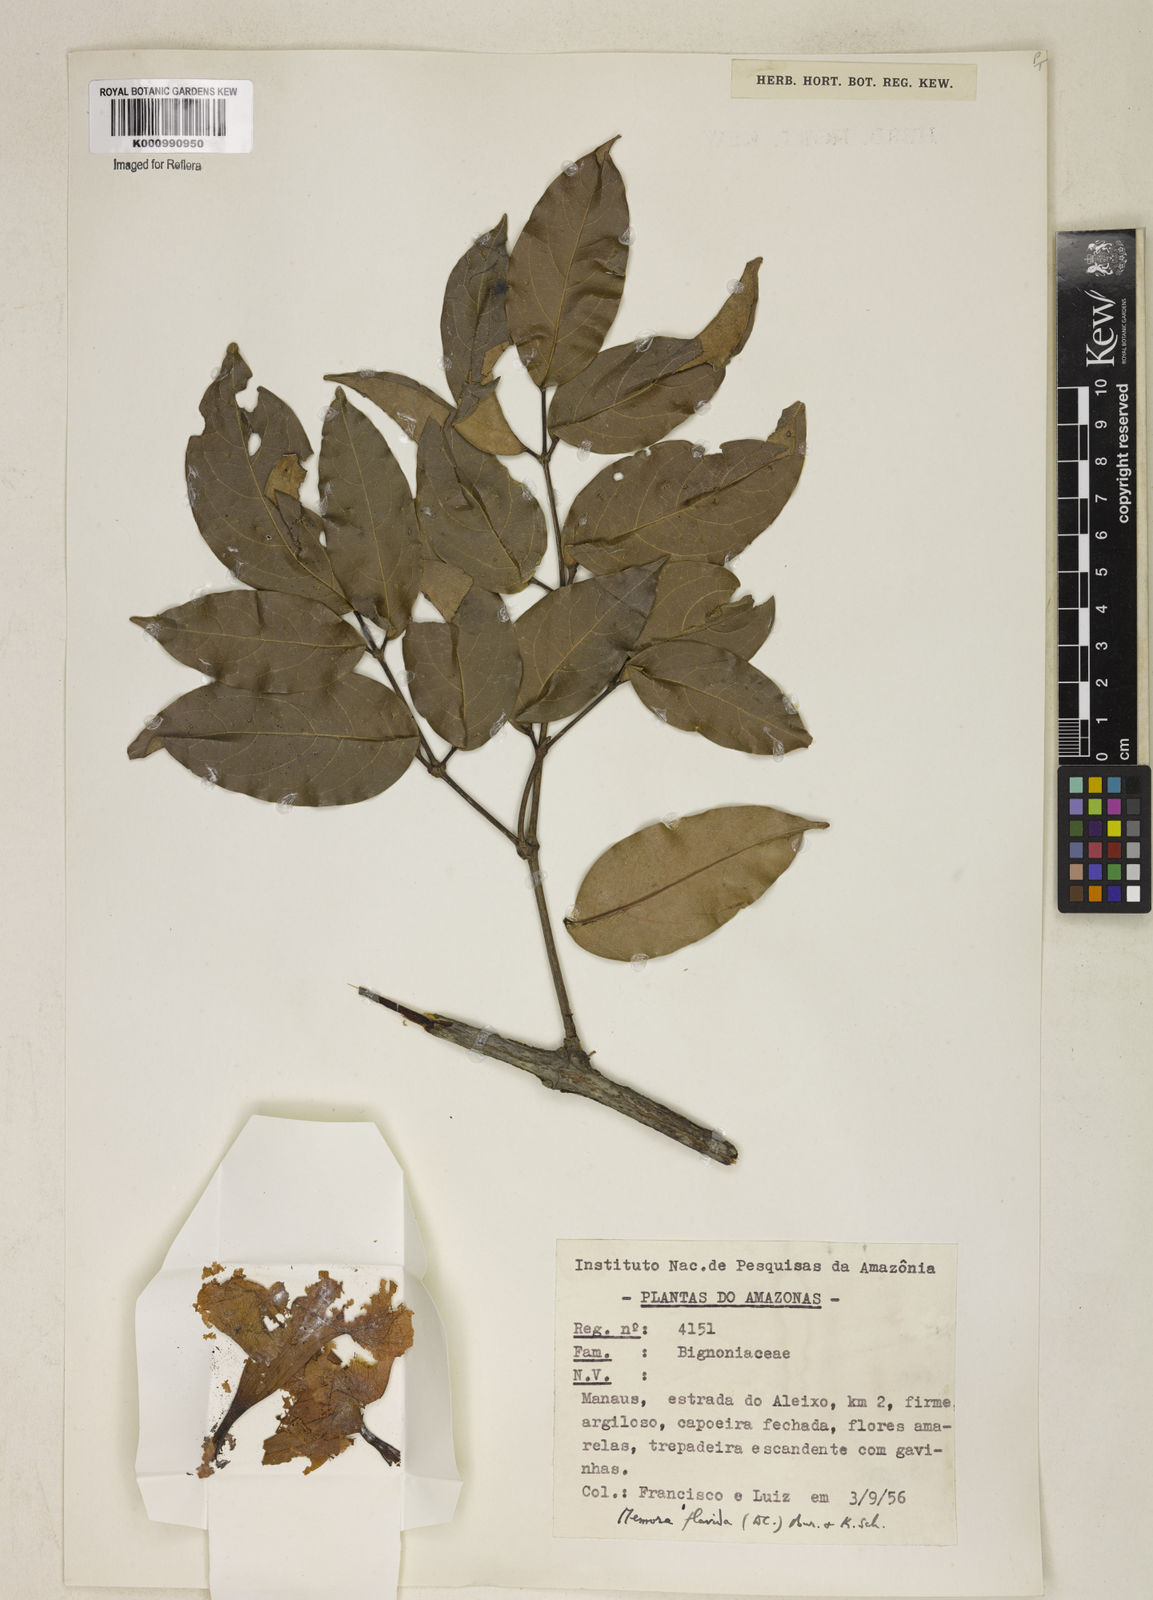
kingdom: Plantae
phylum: Tracheophyta
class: Magnoliopsida
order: Lamiales
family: Bignoniaceae
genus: Adenocalymma
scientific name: Adenocalymma neoflavidum
